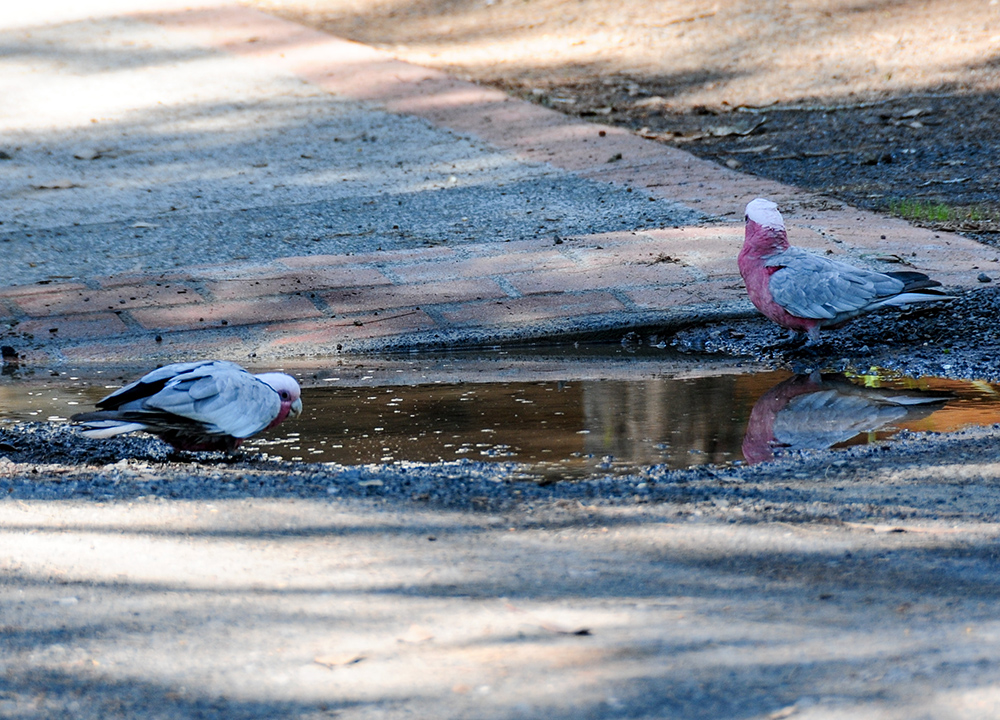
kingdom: Animalia
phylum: Chordata
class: Aves
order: Psittaciformes
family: Psittacidae
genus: Eolophus
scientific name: Eolophus roseicapilla
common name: Galah
